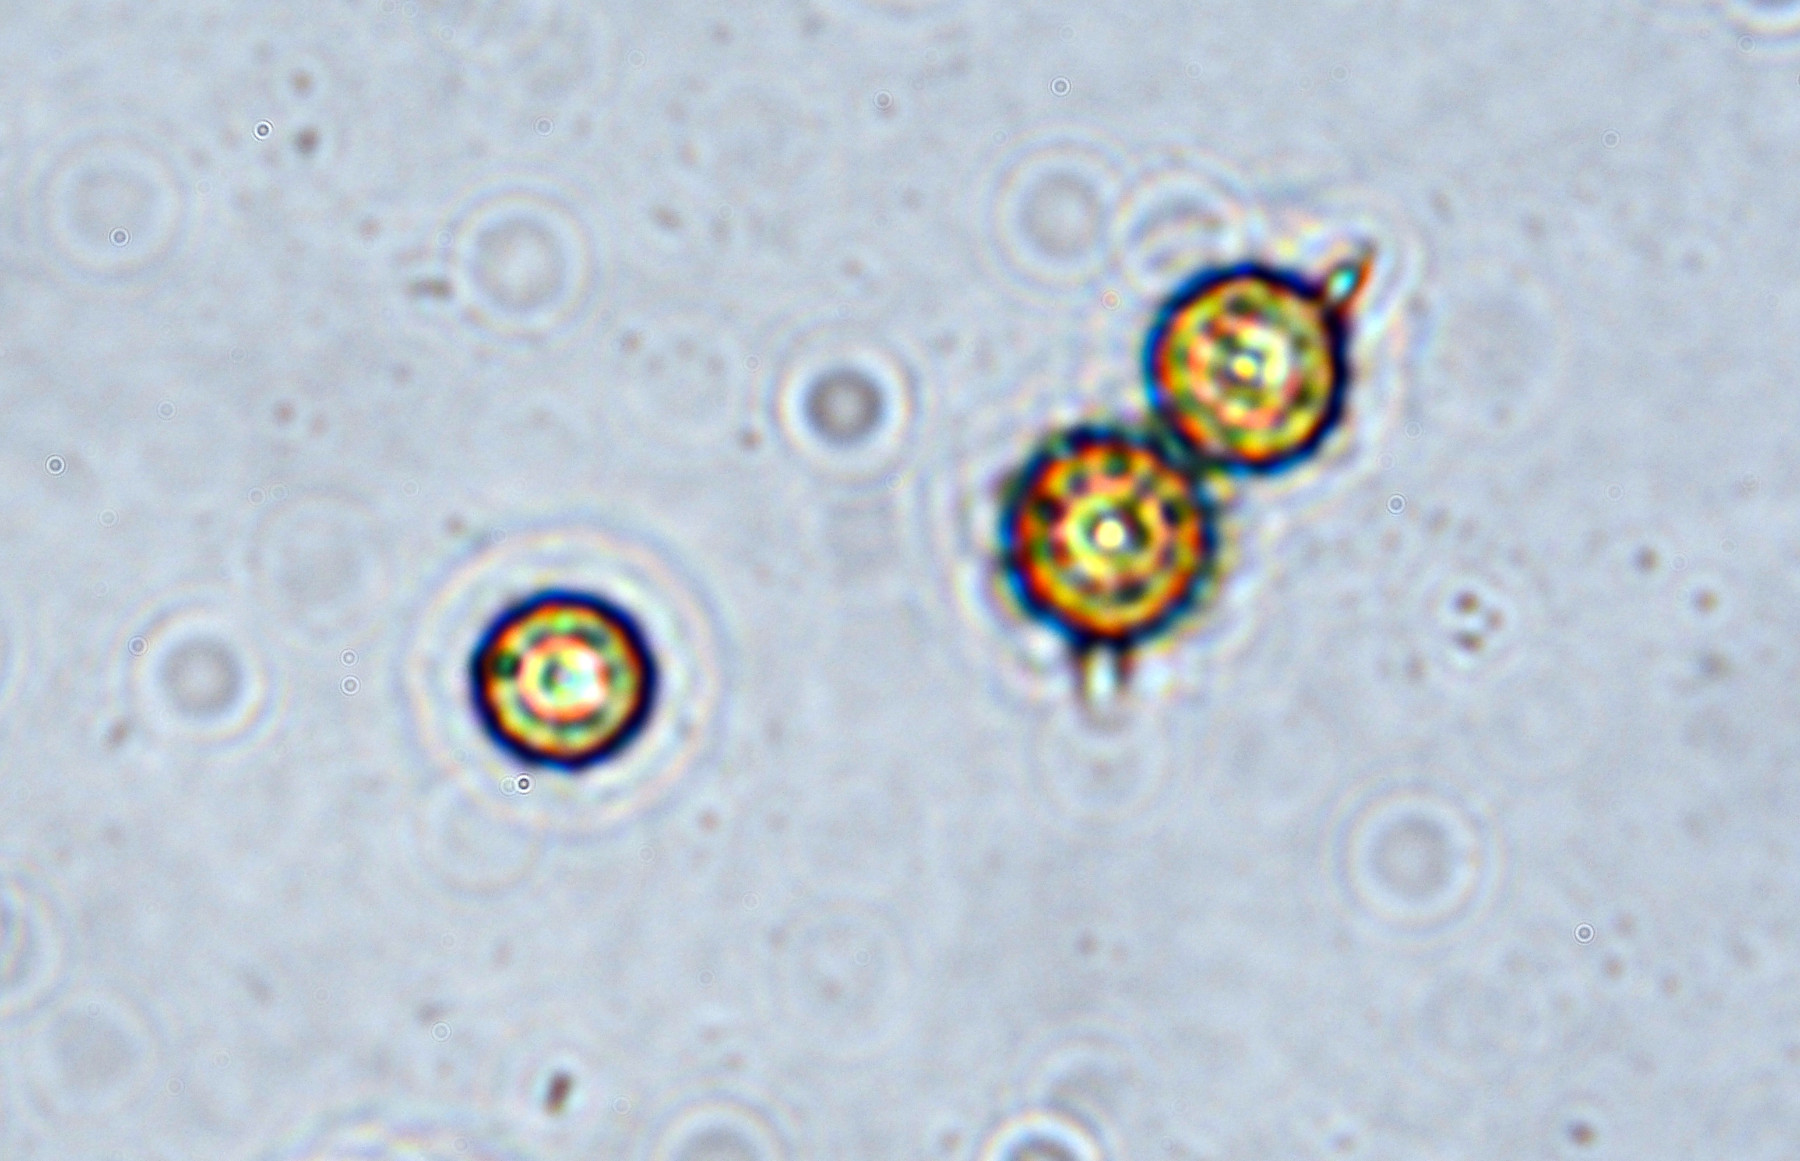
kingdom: Fungi
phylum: Basidiomycota
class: Agaricomycetes
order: Agaricales
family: Lycoperdaceae
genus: Bovista
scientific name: Bovista aestivalis
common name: klit-bovist
